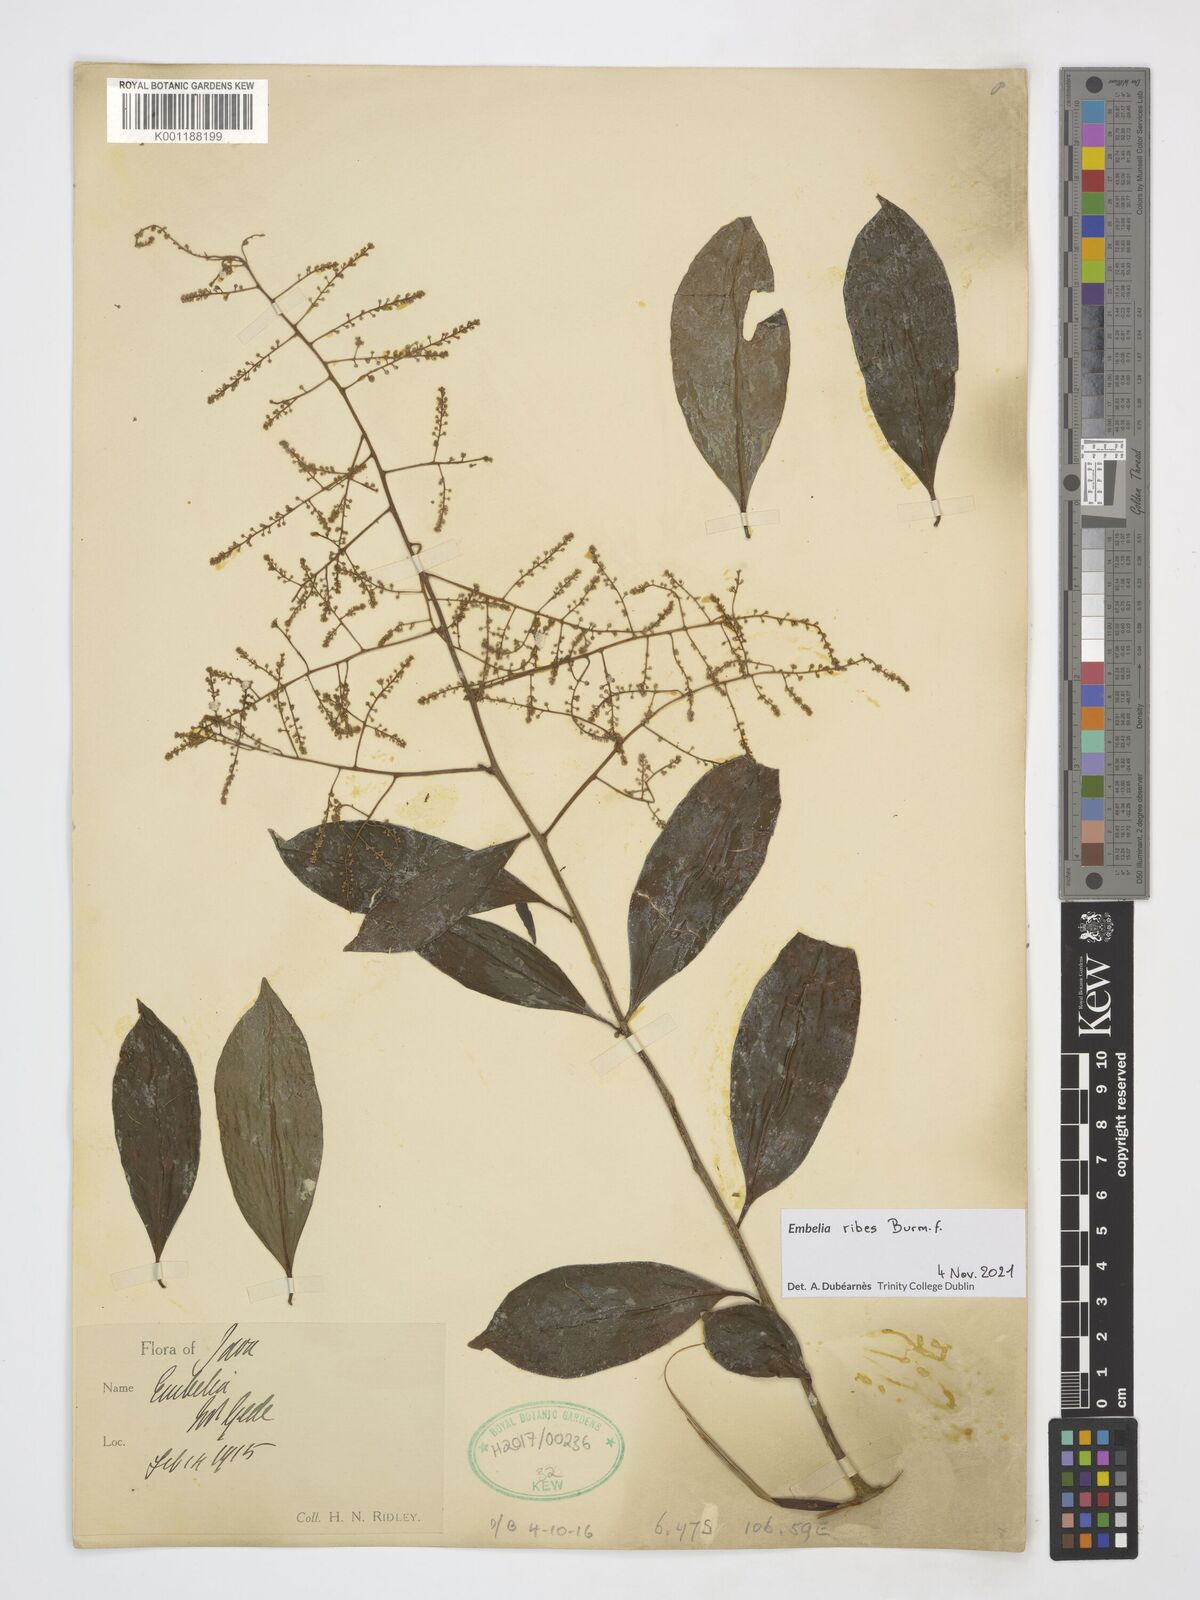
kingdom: Plantae
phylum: Tracheophyta
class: Magnoliopsida
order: Ericales
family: Primulaceae
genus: Embelia
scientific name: Embelia ribes
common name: Vidanga
